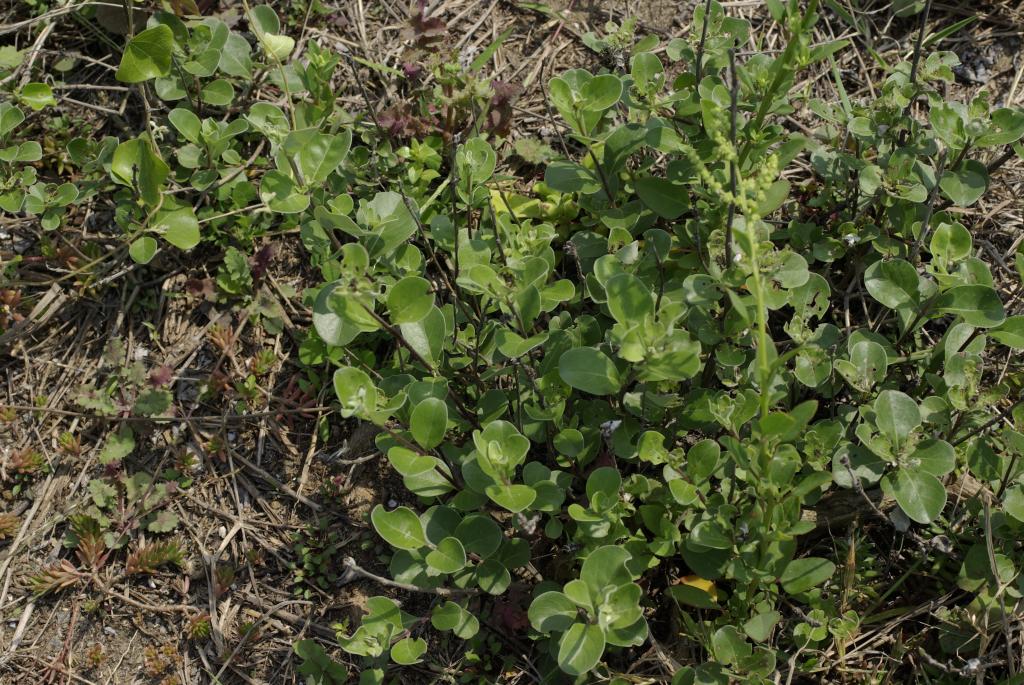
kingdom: Plantae
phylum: Tracheophyta
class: Magnoliopsida
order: Lamiales
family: Lamiaceae
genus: Vitex
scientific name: Vitex rotundifolia
